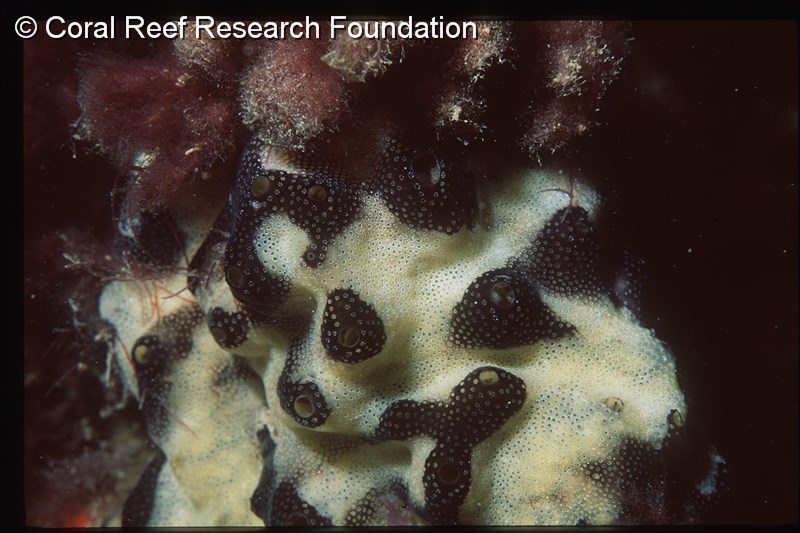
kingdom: Animalia
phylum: Chordata
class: Ascidiacea
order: Aplousobranchia
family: Didemnidae
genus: Lissoclinum
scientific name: Lissoclinum
